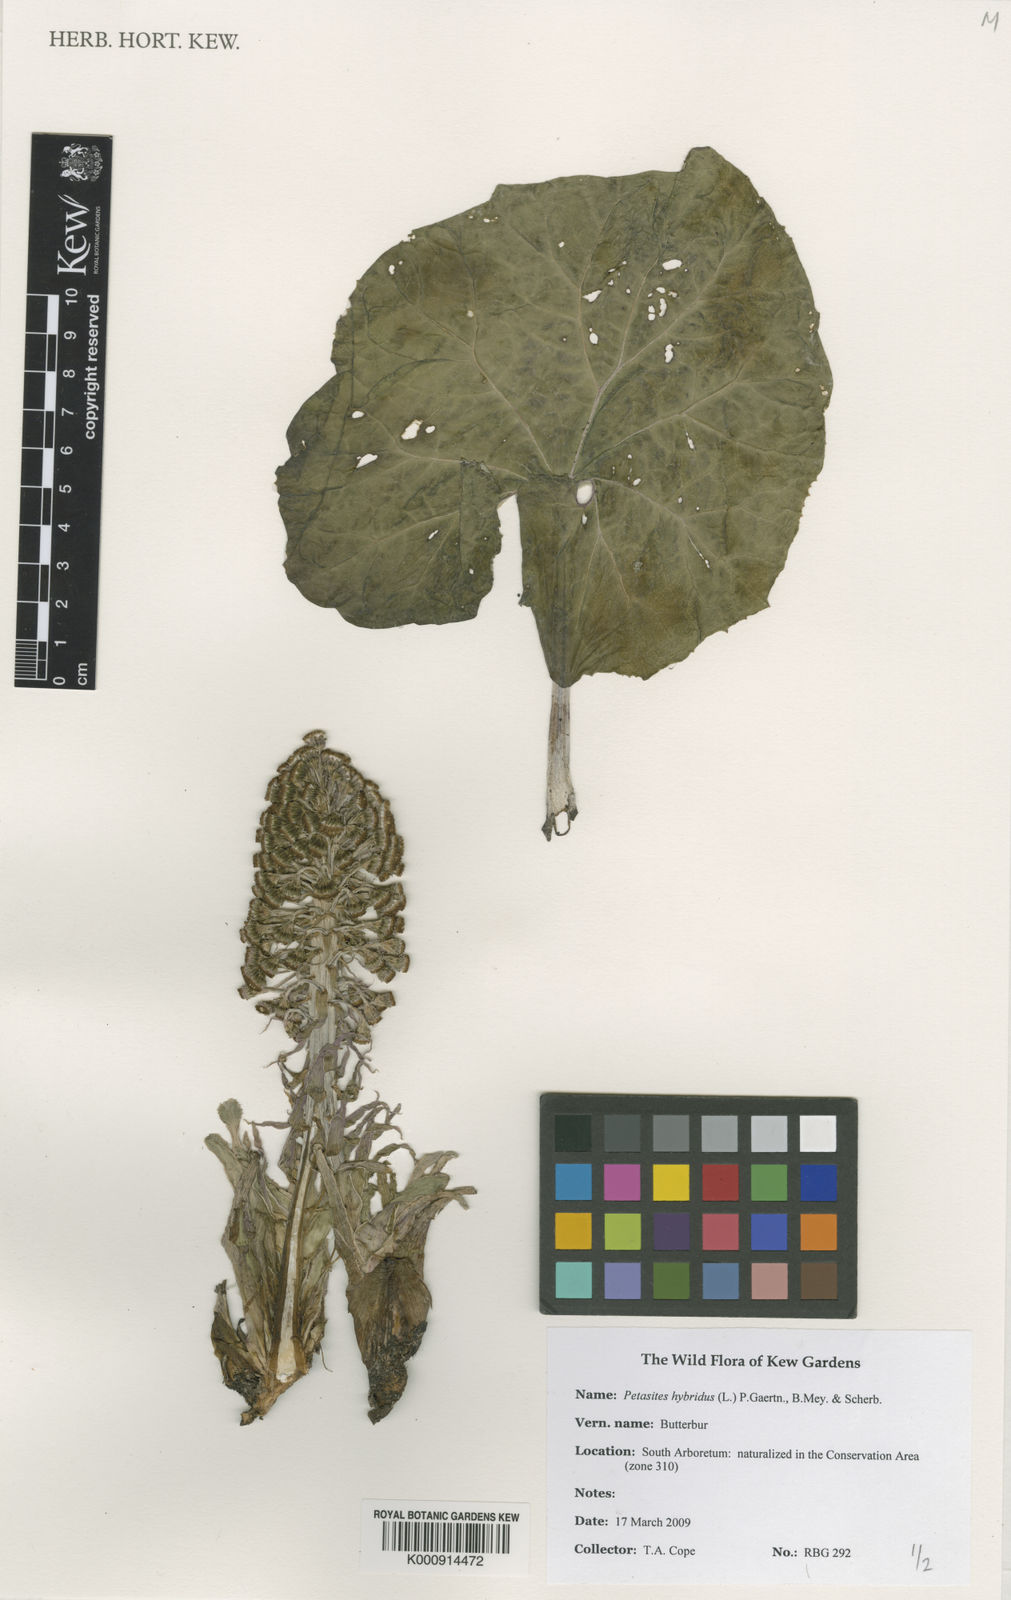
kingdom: Plantae
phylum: Tracheophyta
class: Magnoliopsida
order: Asterales
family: Asteraceae
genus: Petasites
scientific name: Petasites
